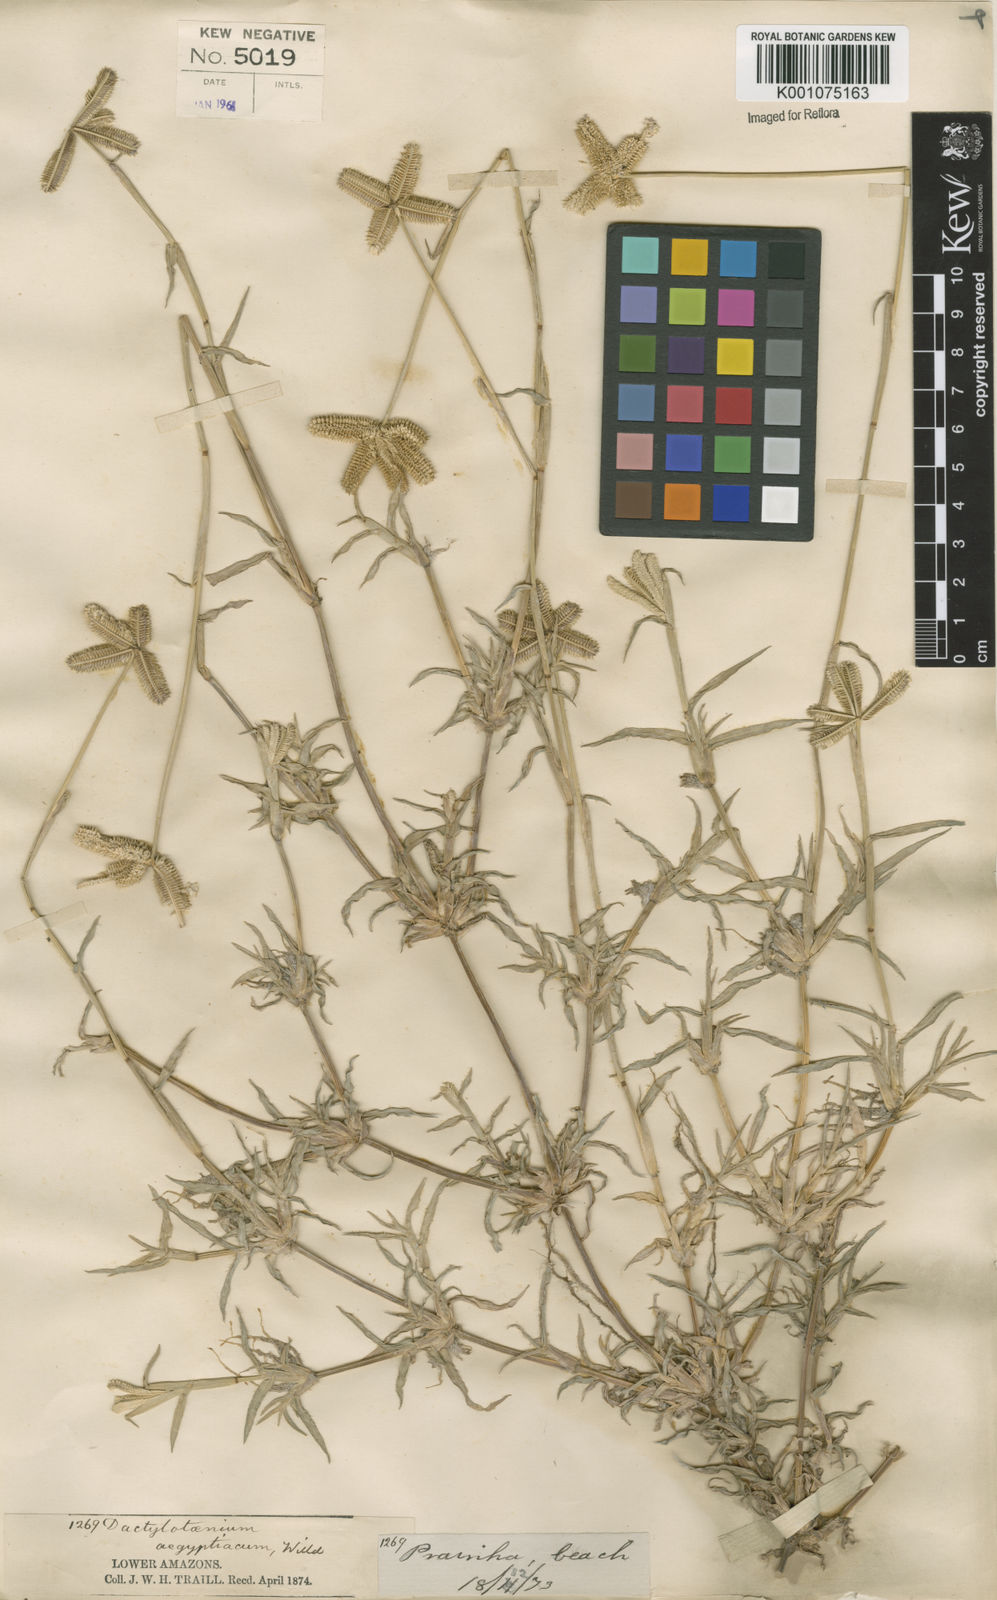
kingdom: Plantae
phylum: Tracheophyta
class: Liliopsida
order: Poales
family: Poaceae
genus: Dactyloctenium
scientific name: Dactyloctenium aegyptium
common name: Egyptian grass
